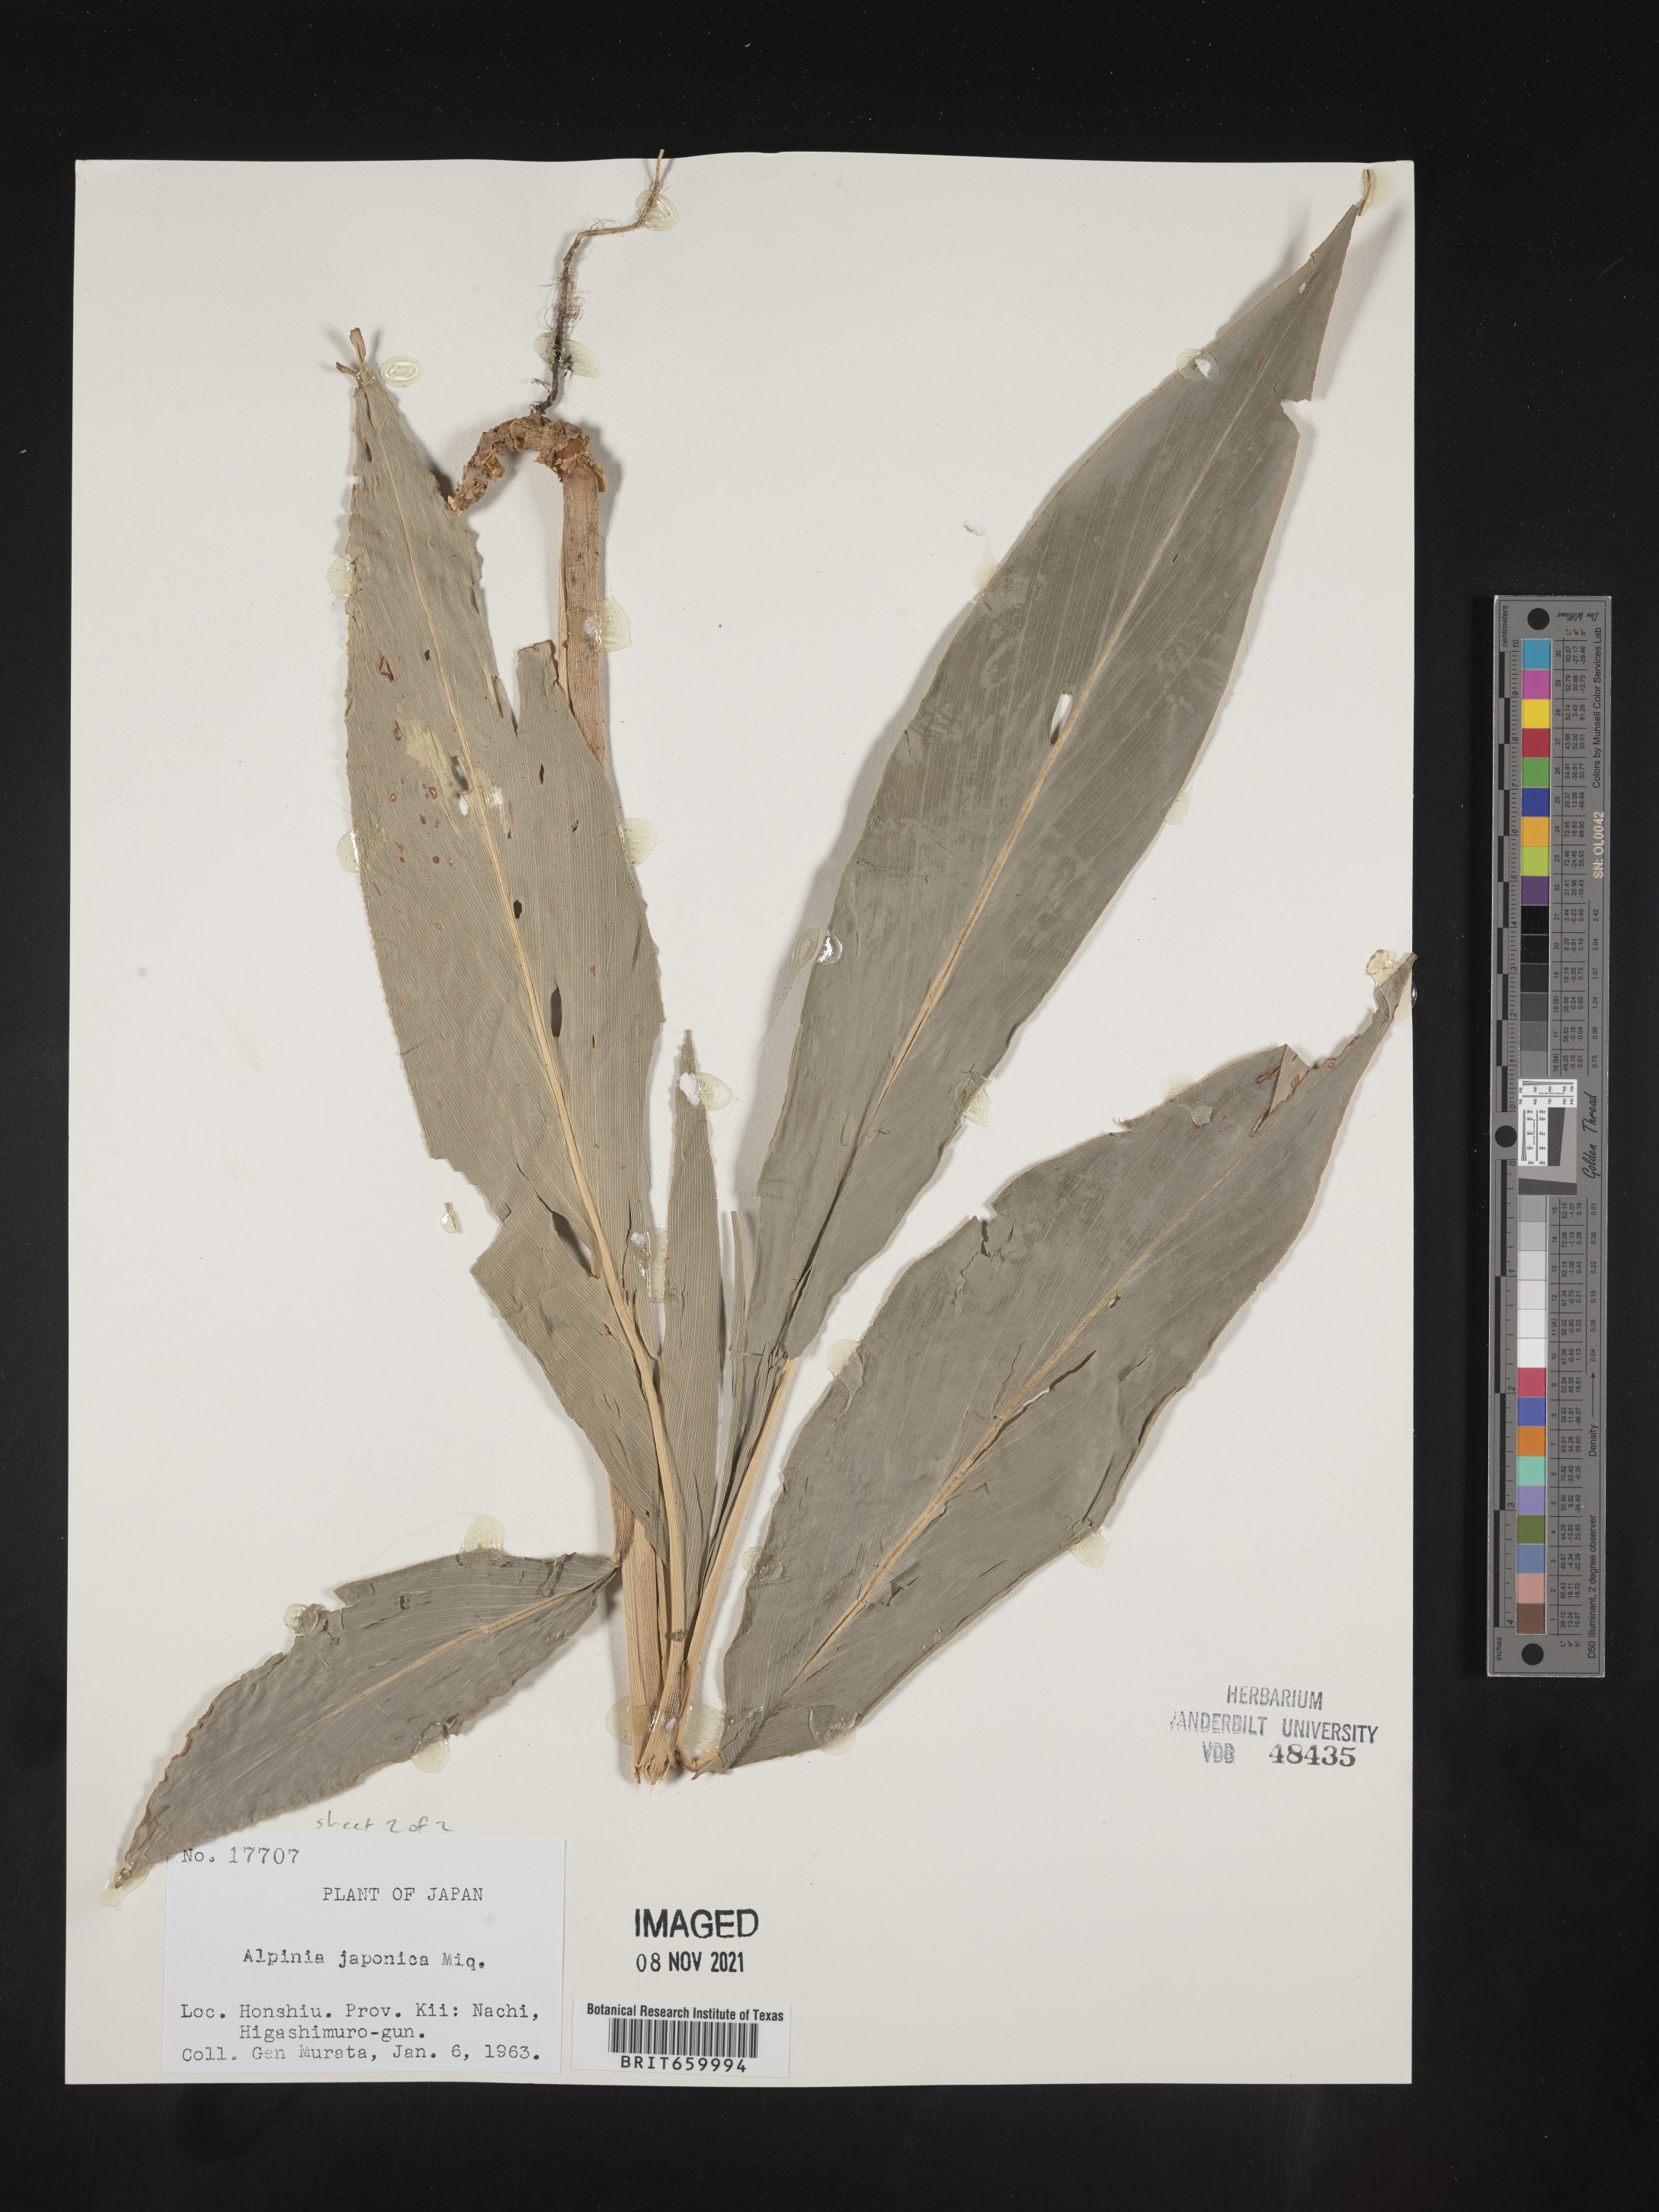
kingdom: Plantae
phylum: Tracheophyta
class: Liliopsida
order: Zingiberales
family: Zingiberaceae
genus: Alpinia
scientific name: Alpinia
